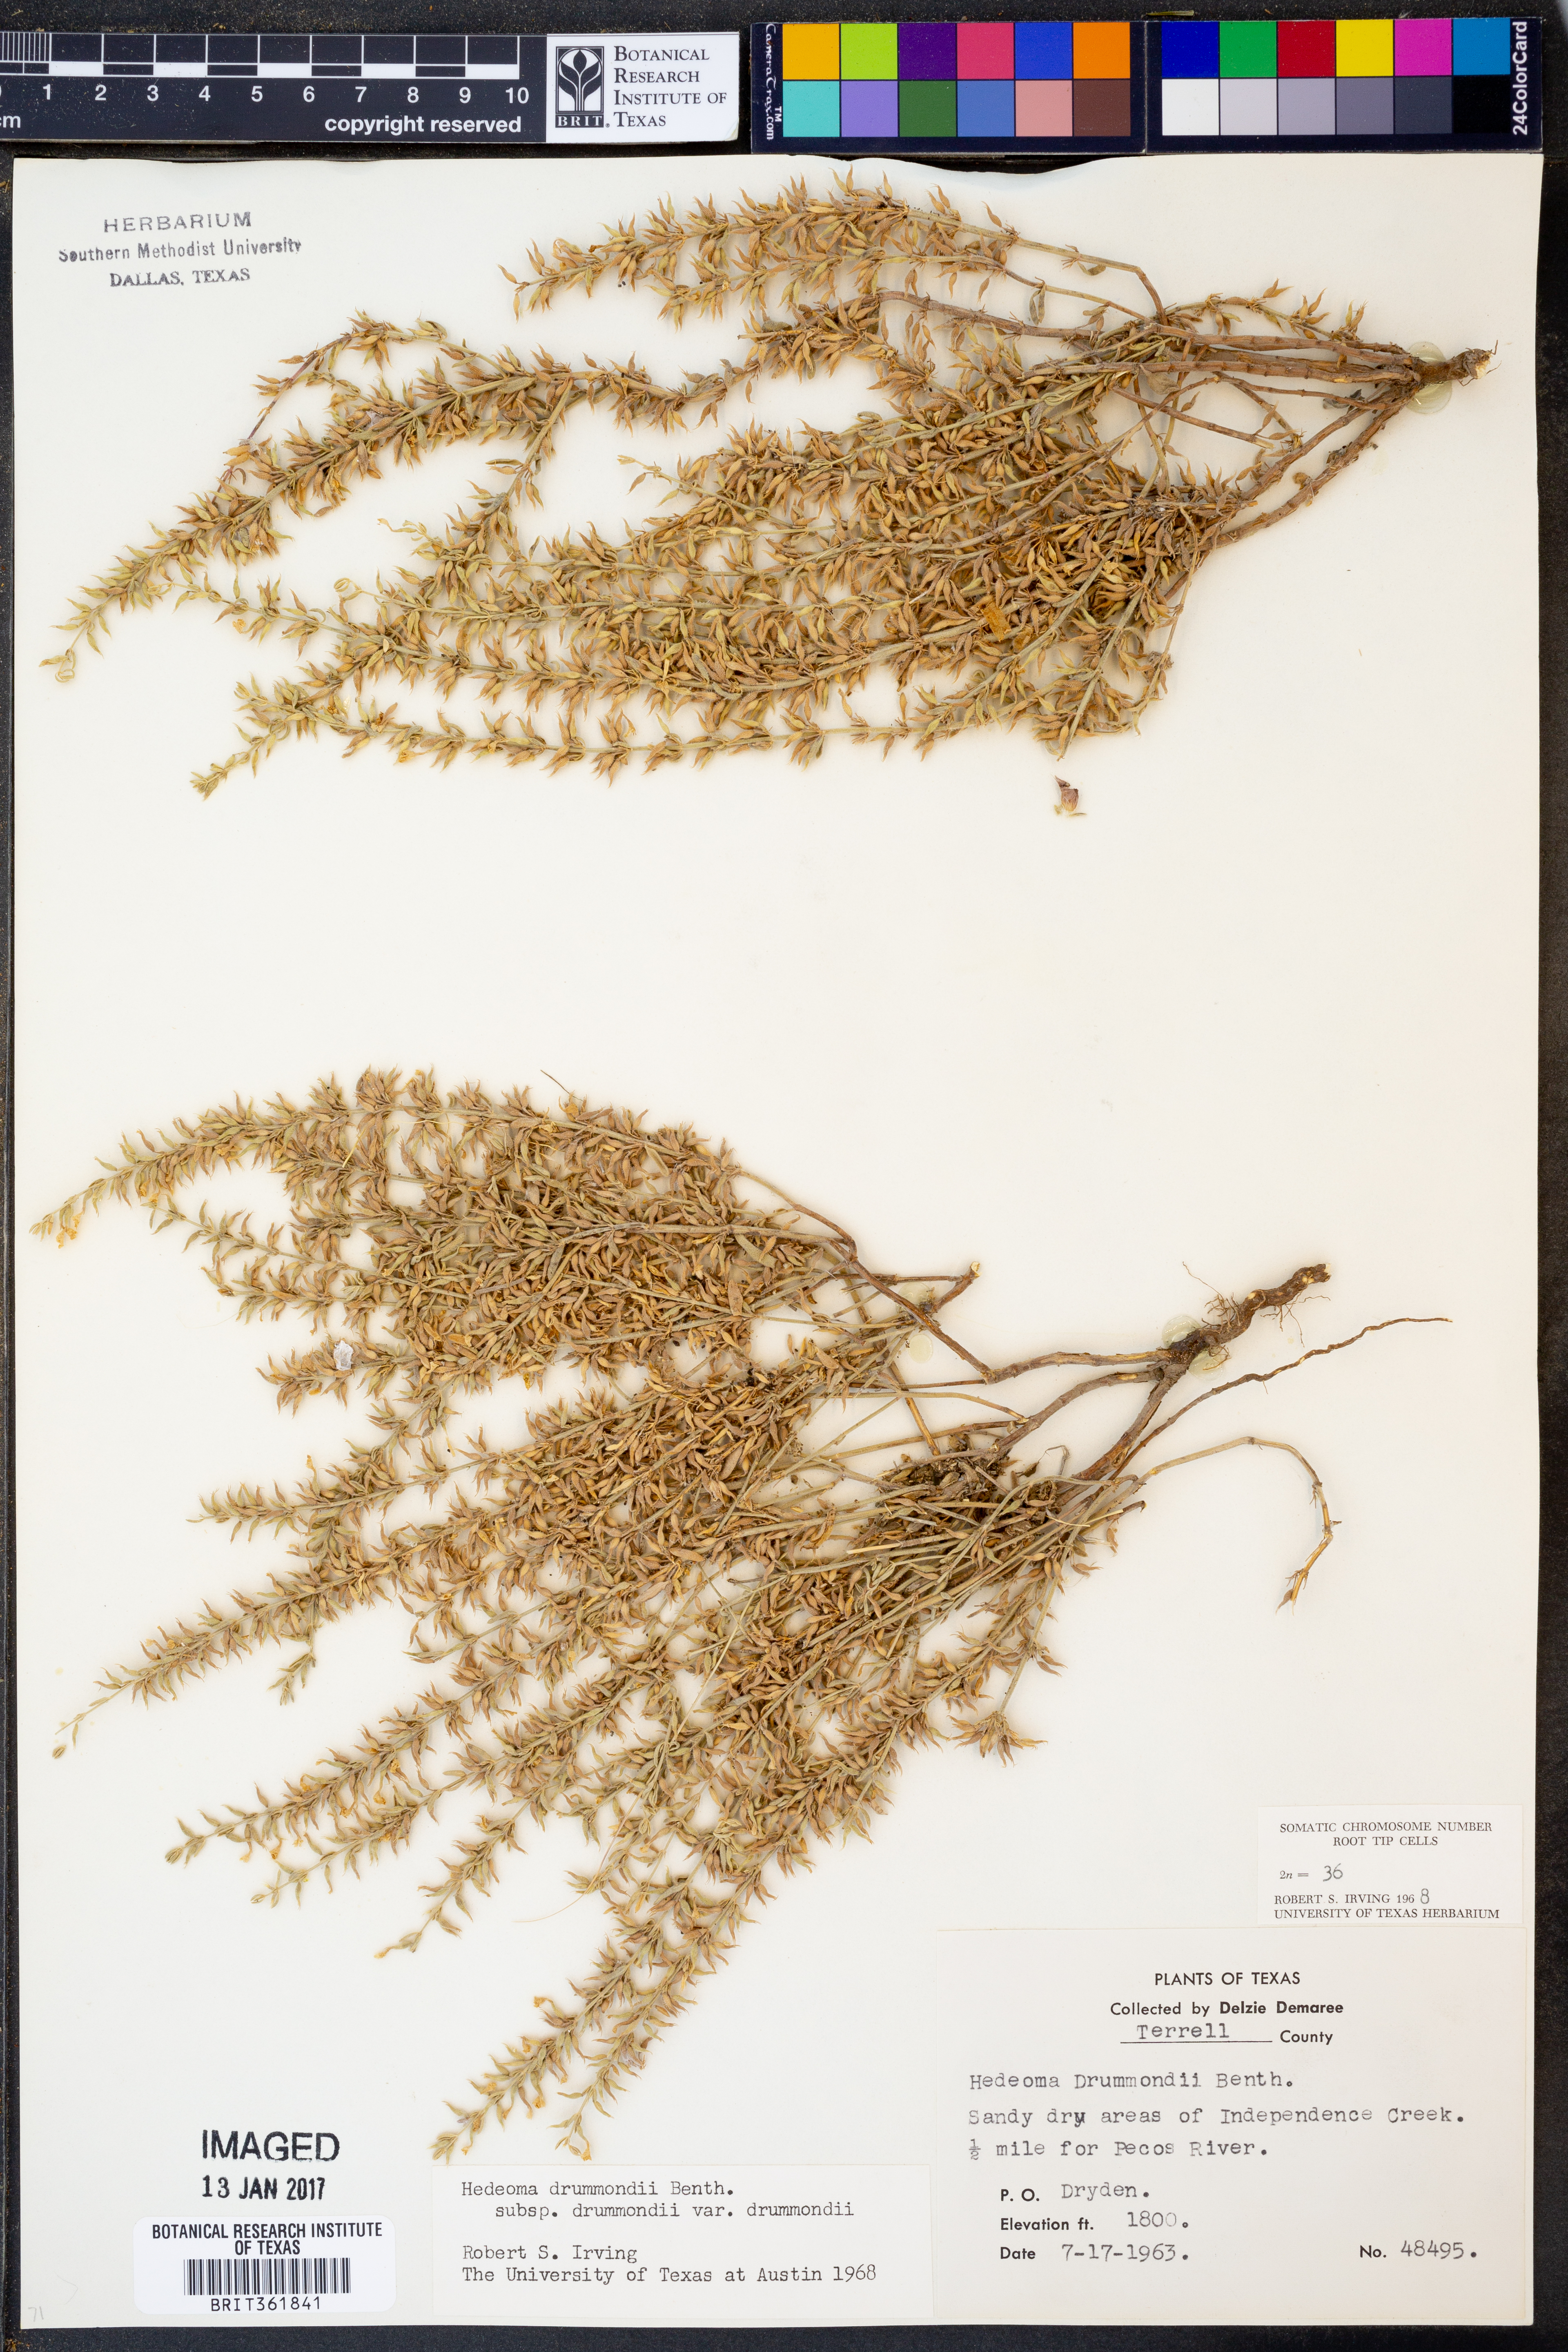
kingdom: Plantae
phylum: Tracheophyta
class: Magnoliopsida
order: Lamiales
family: Lamiaceae
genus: Hedeoma
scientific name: Hedeoma drummondii
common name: New mexico pennyroyal
